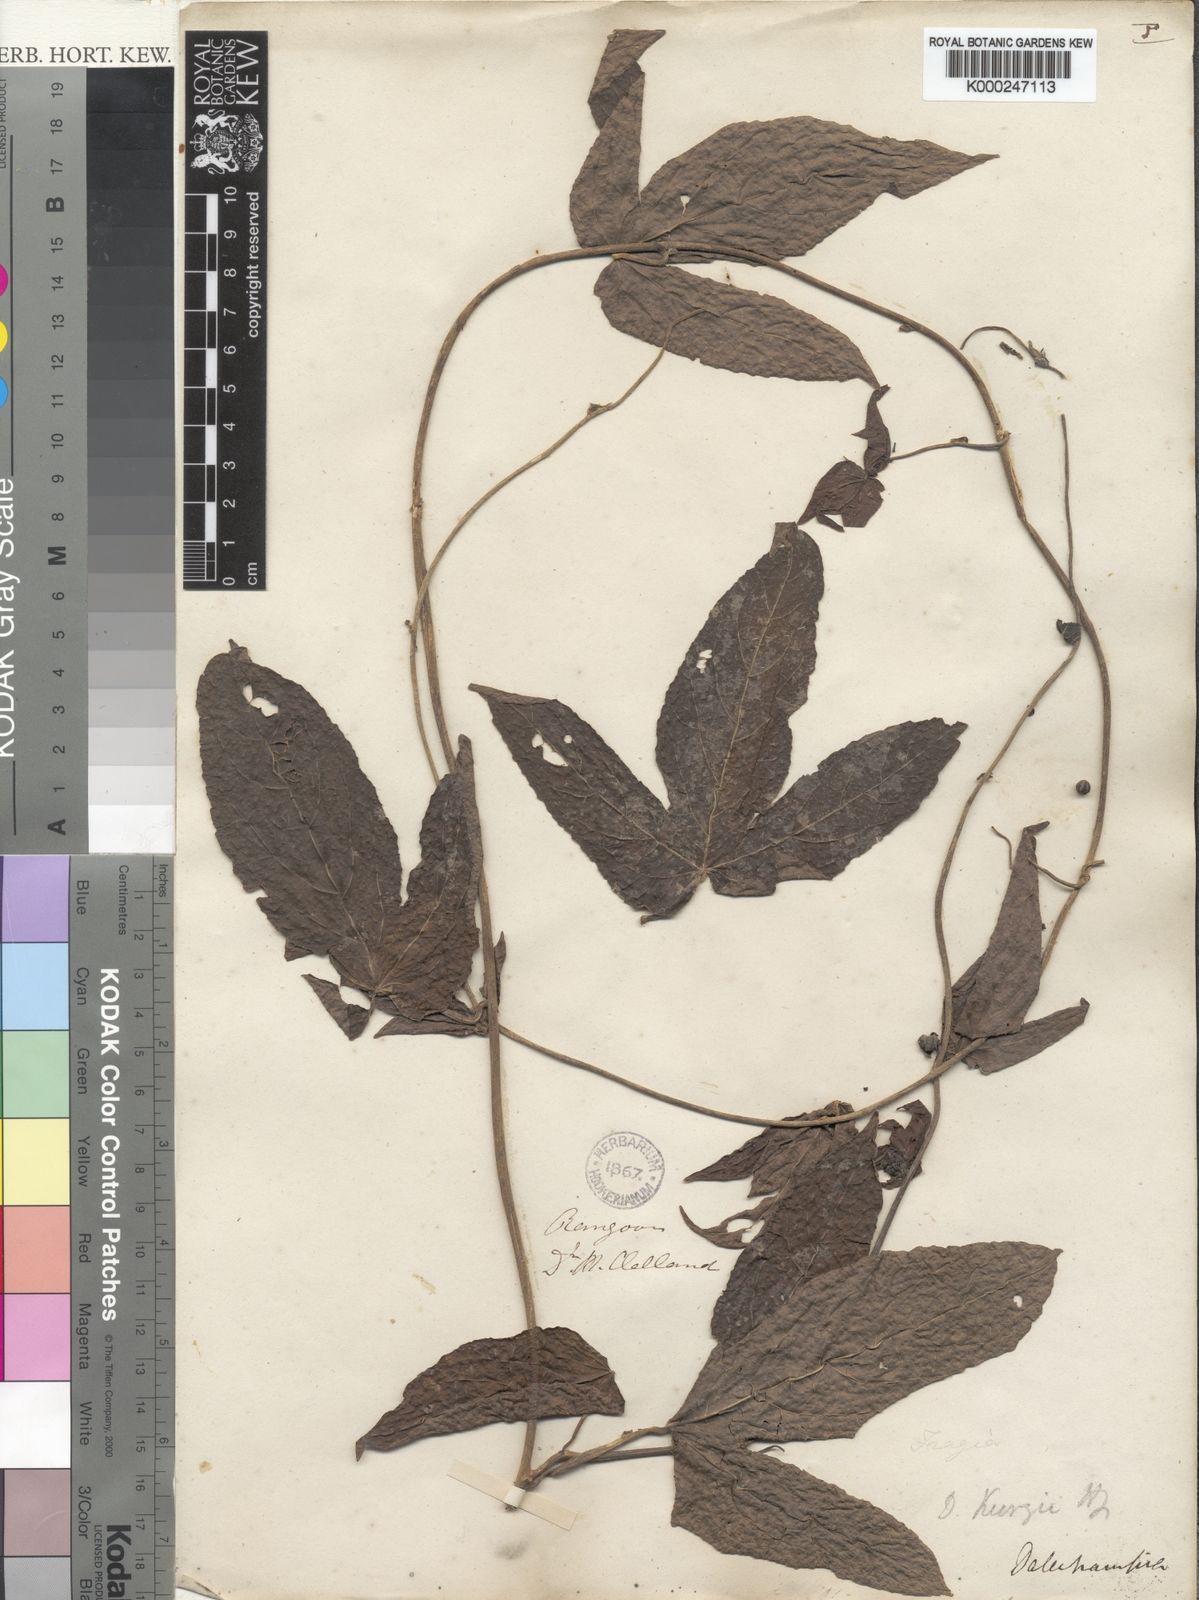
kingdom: Plantae
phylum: Tracheophyta
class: Magnoliopsida
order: Malpighiales
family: Euphorbiaceae
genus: Dalechampia
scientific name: Dalechampia scandens
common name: Spurgecreeper
